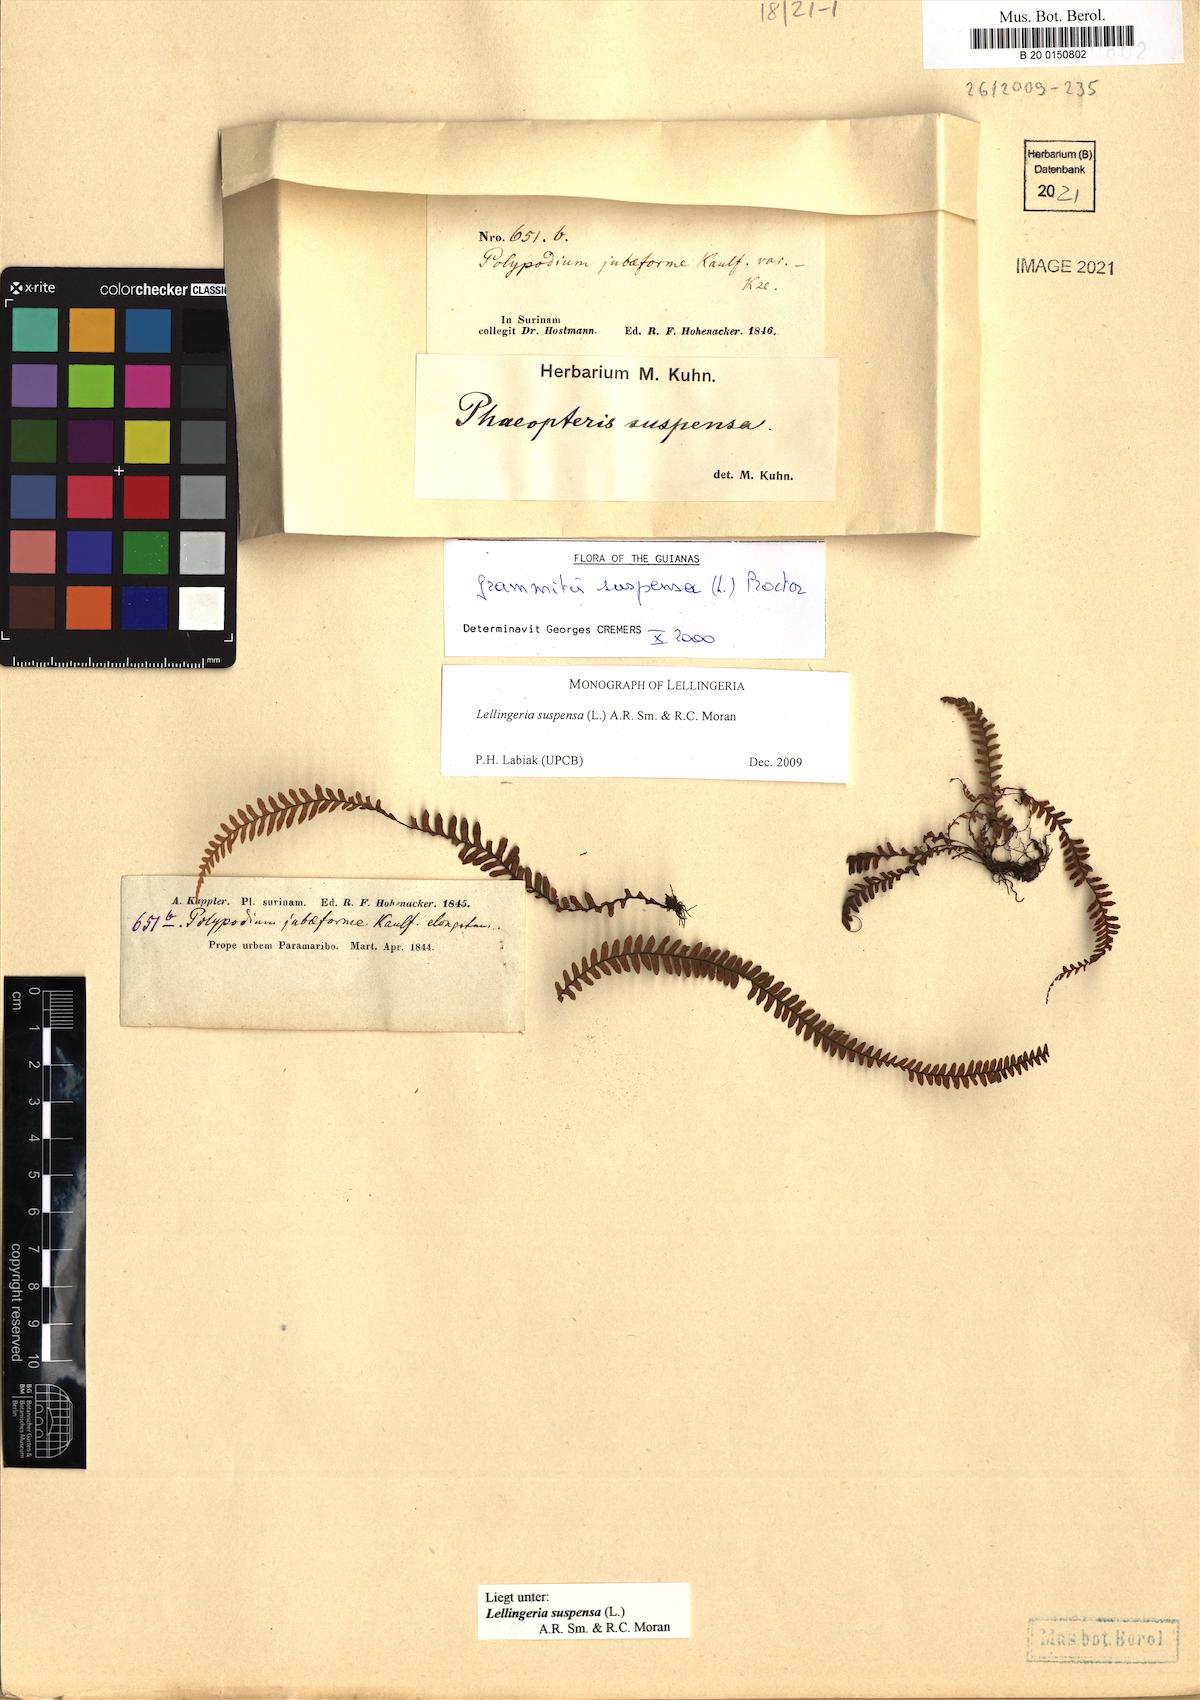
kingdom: Plantae
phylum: Tracheophyta
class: Polypodiopsida
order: Polypodiales
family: Polypodiaceae
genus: Lellingeria
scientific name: Lellingeria suspensa
